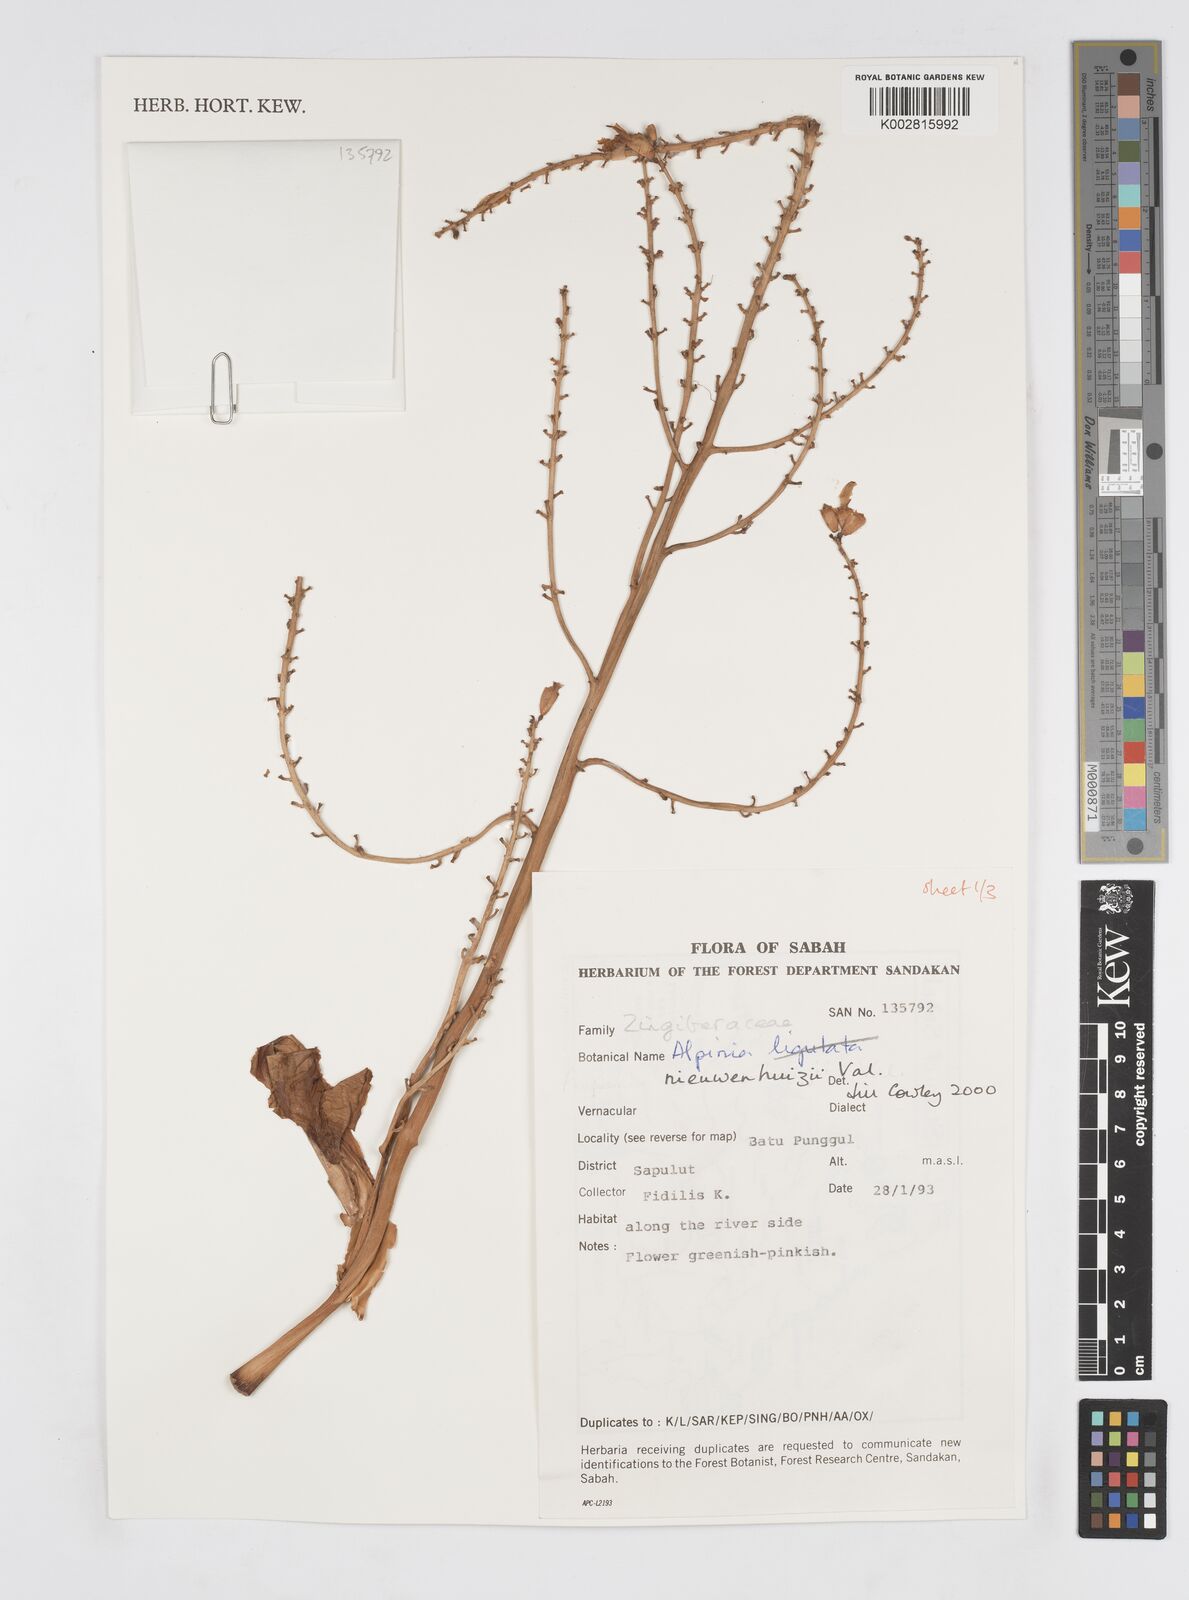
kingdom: Plantae
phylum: Tracheophyta
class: Liliopsida
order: Zingiberales
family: Zingiberaceae
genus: Alpinia
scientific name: Alpinia nieuwenhuizii
